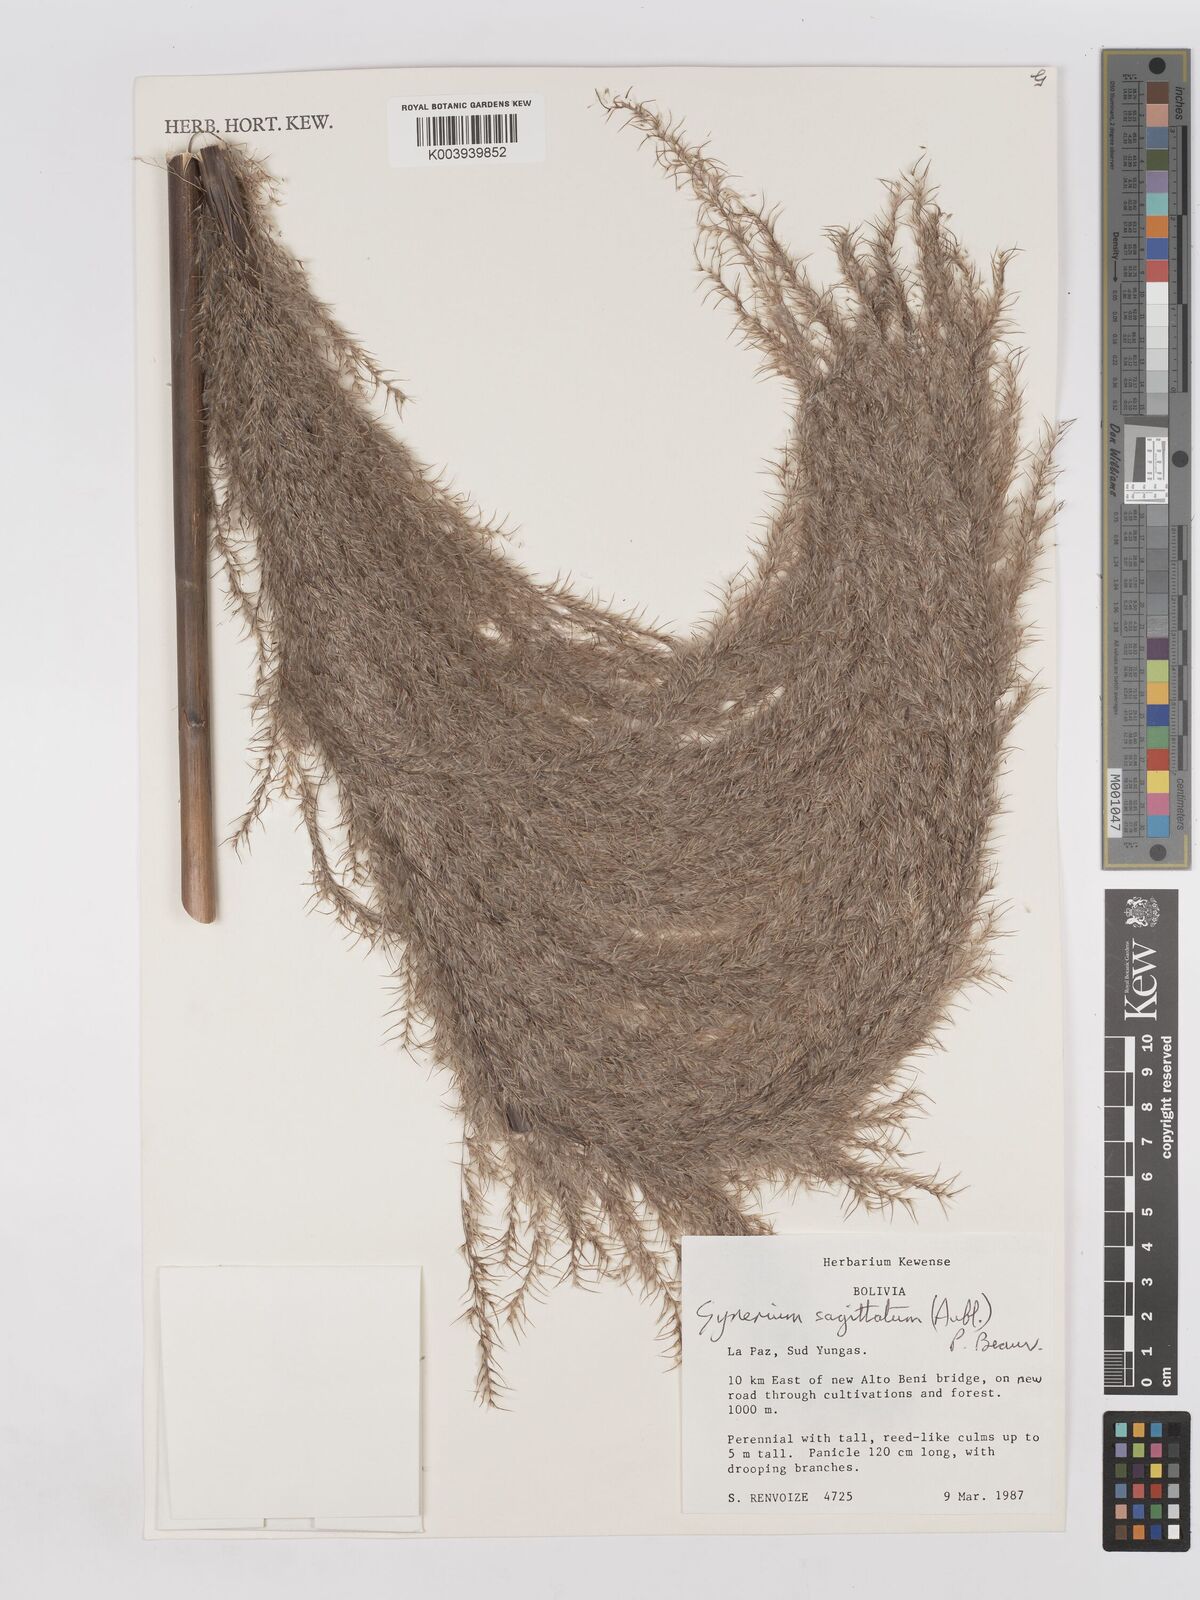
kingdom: Plantae
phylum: Tracheophyta
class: Liliopsida
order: Poales
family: Poaceae
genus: Gynerium
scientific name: Gynerium sagittatum
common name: Wild cane
